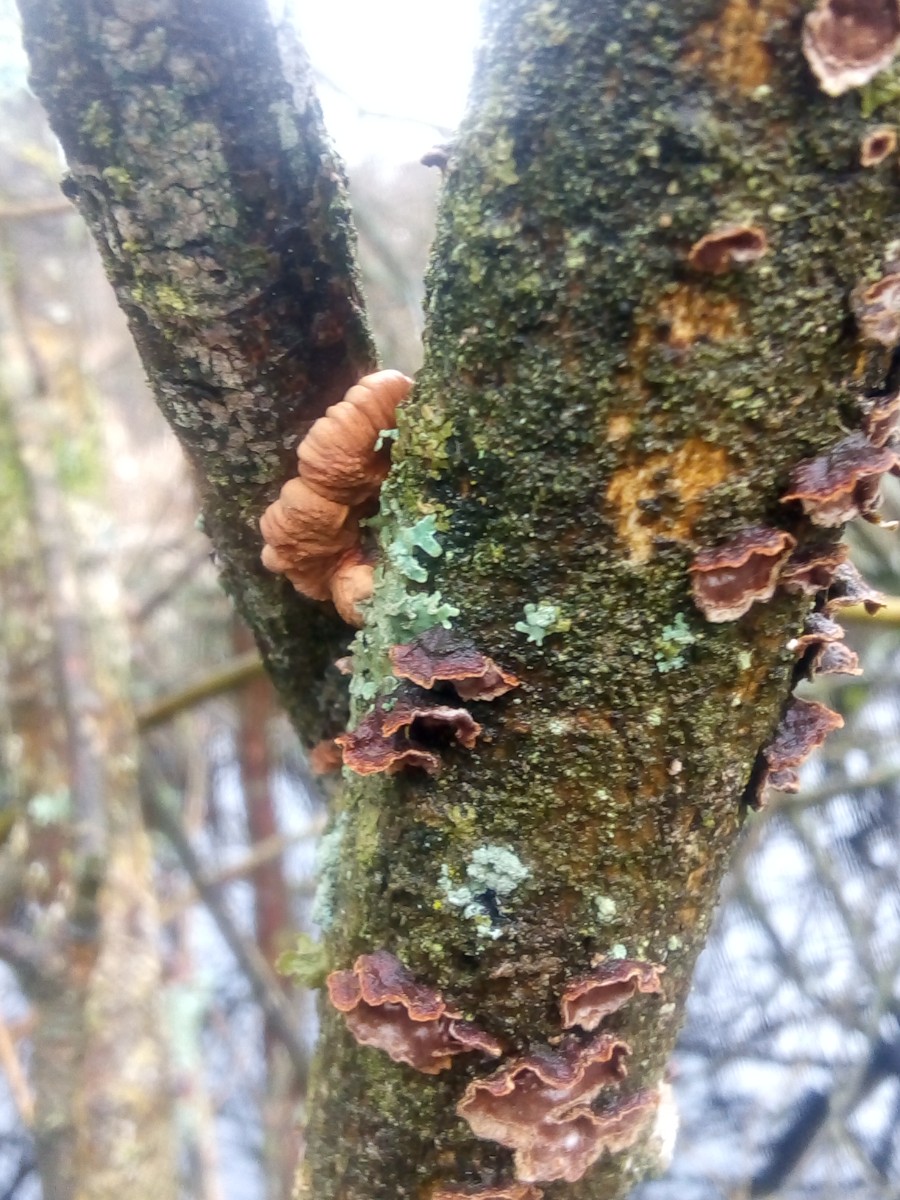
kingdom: Fungi
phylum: Ascomycota
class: Sordariomycetes
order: Hypocreales
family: Hypocreaceae
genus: Hypocreopsis
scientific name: Hypocreopsis lichenoides
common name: pilfinger
